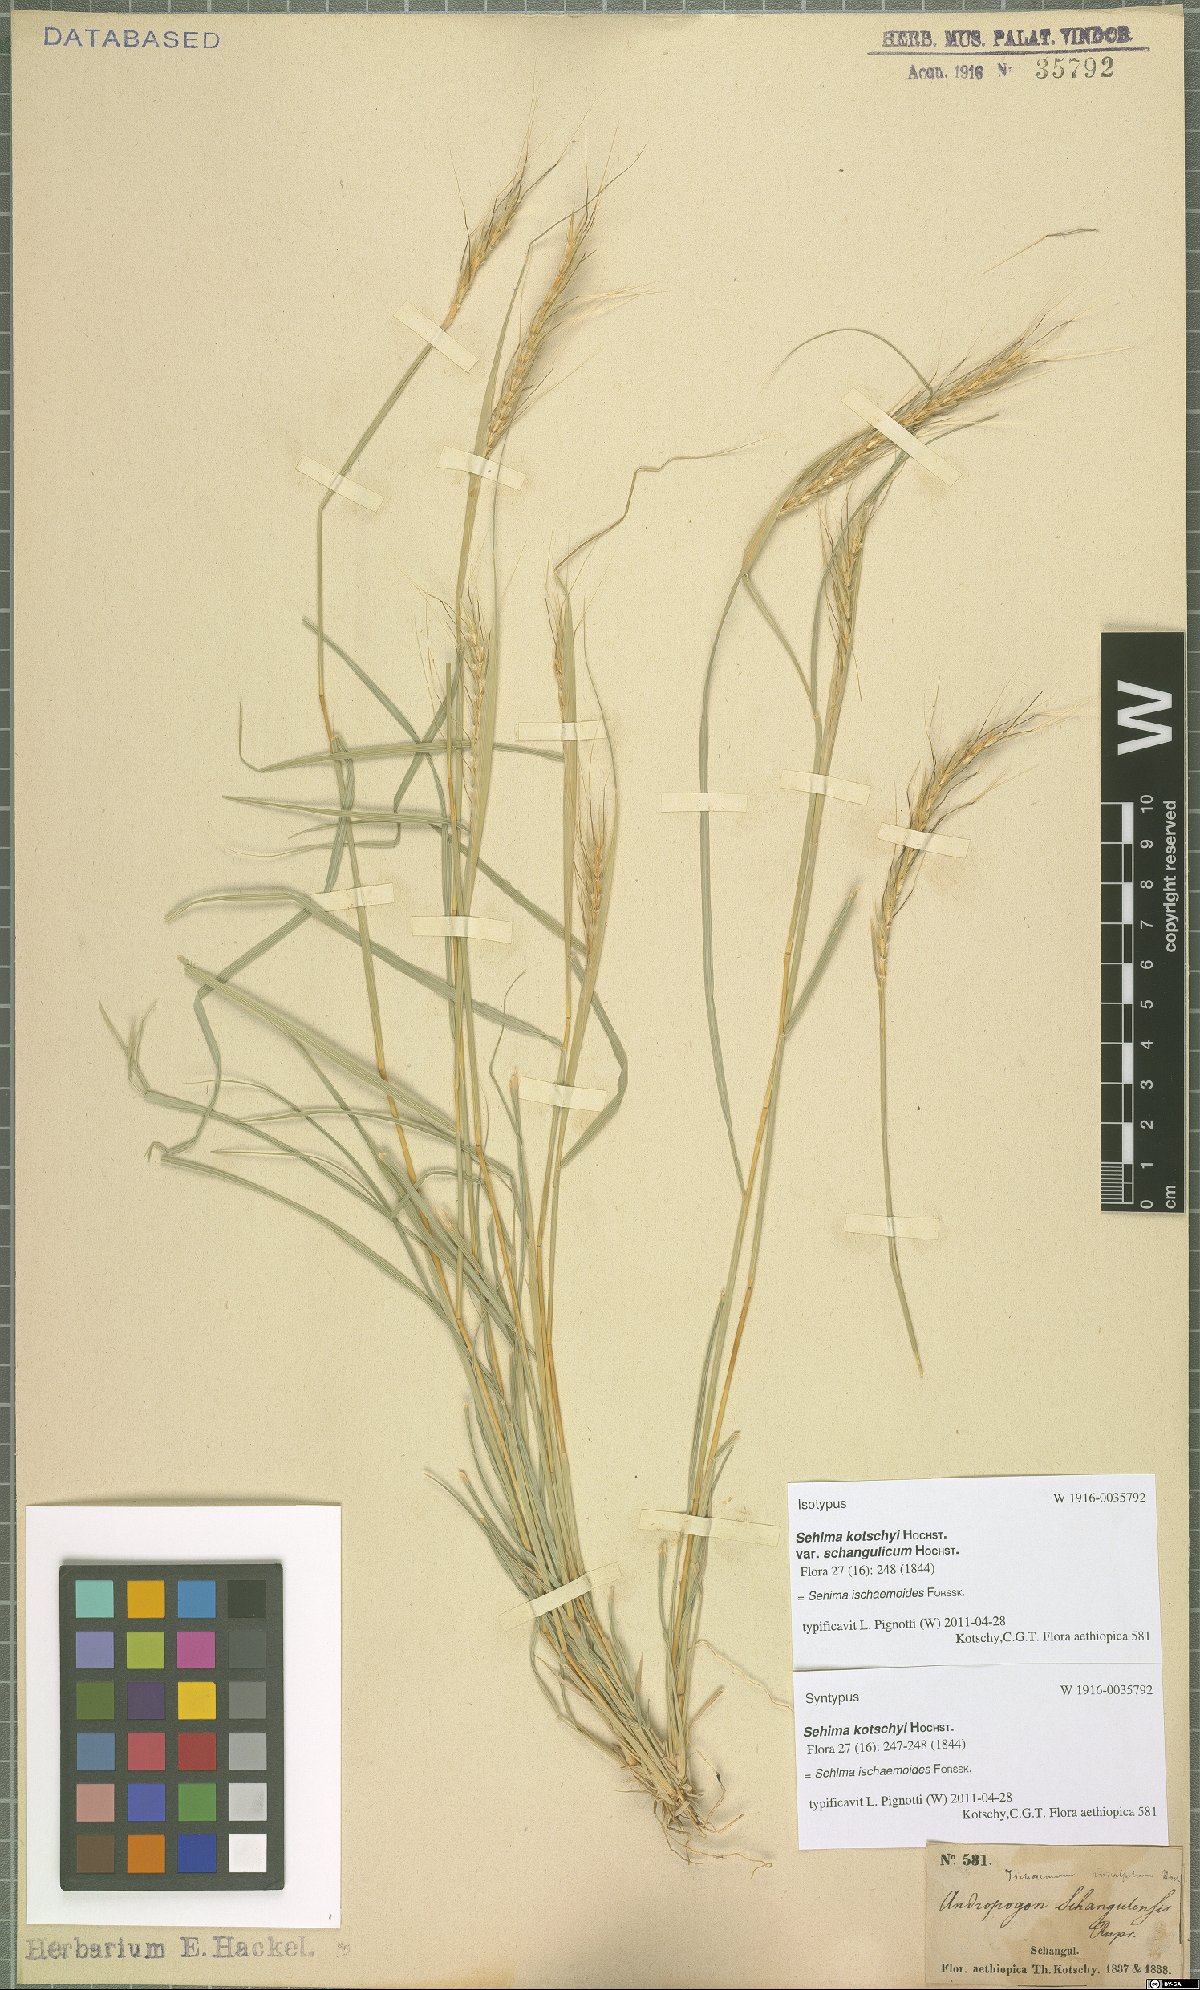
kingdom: Plantae
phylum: Tracheophyta
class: Liliopsida
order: Poales
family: Poaceae
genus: Sehima
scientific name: Sehima ischaemoides
